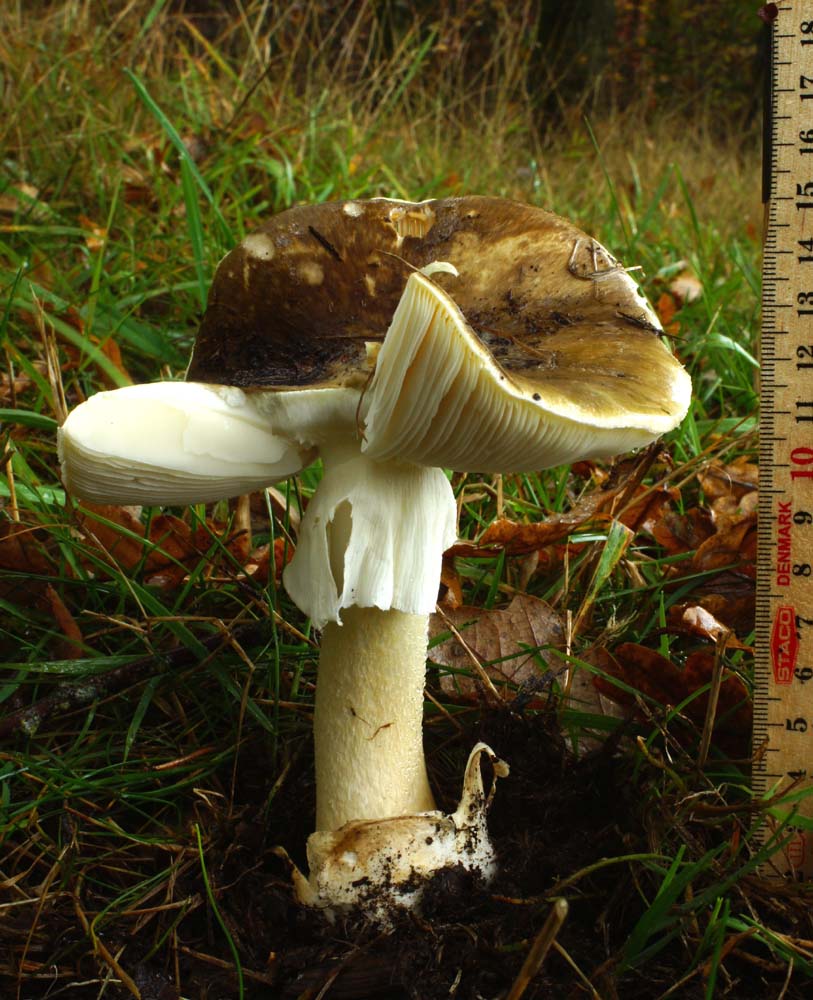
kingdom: Fungi
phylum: Basidiomycota
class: Agaricomycetes
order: Agaricales
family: Amanitaceae
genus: Amanita
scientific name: Amanita phalloides
